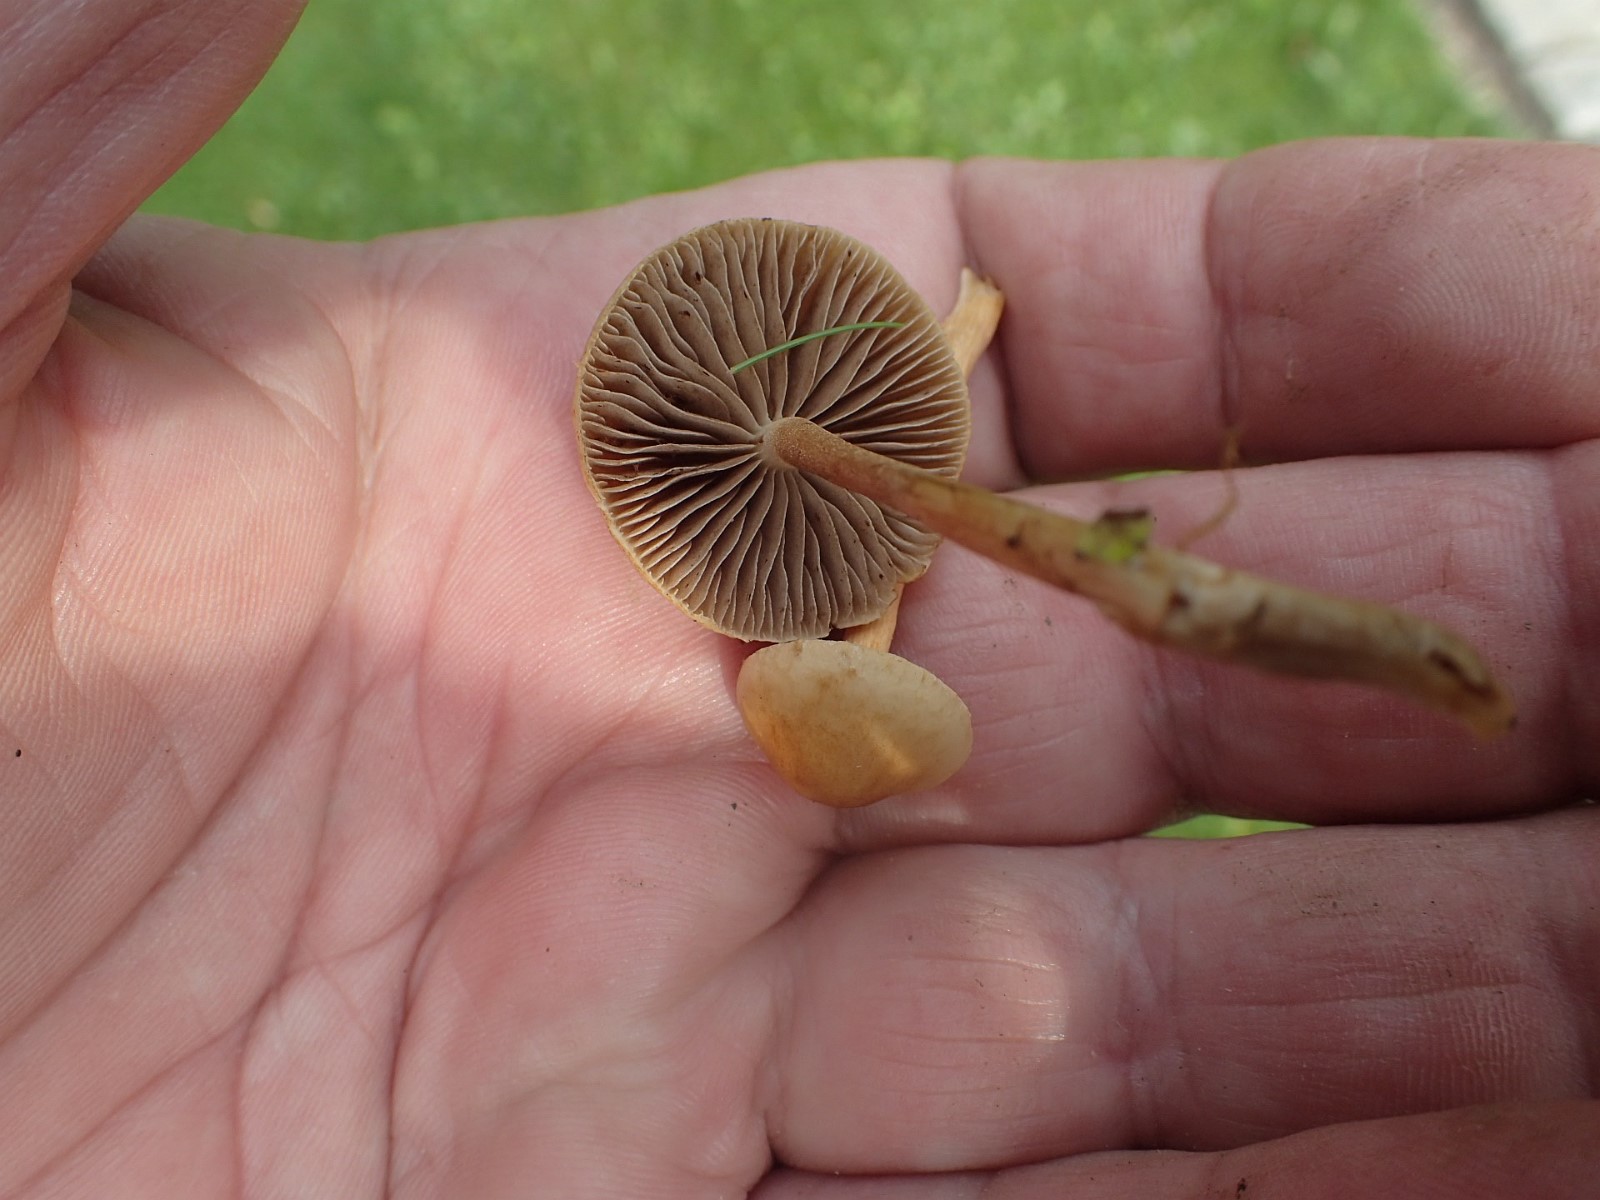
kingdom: Fungi
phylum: Basidiomycota
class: Agaricomycetes
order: Agaricales
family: Strophariaceae
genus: Agrocybe
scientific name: Agrocybe
